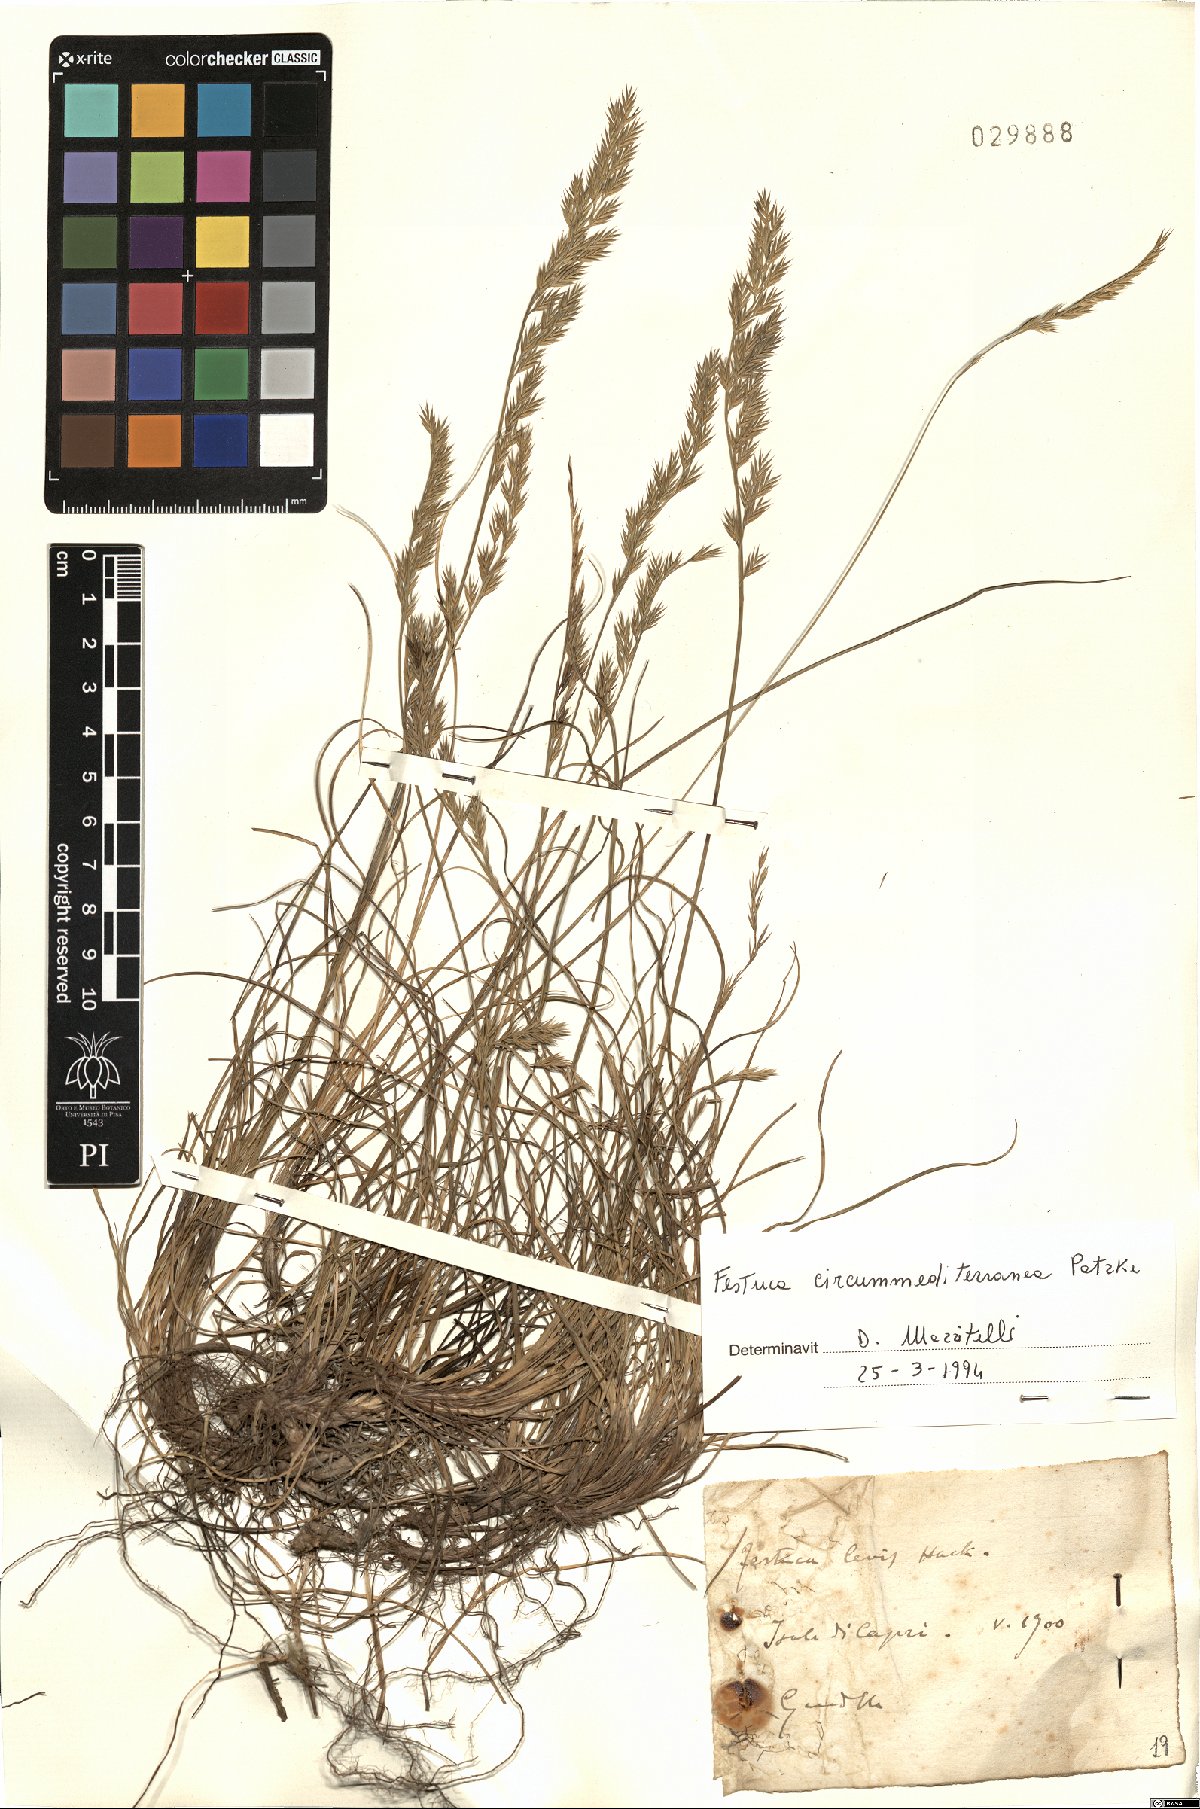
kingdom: Plantae
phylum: Tracheophyta
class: Liliopsida
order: Poales
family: Poaceae
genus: Festuca
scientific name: Festuca circummediterranea
